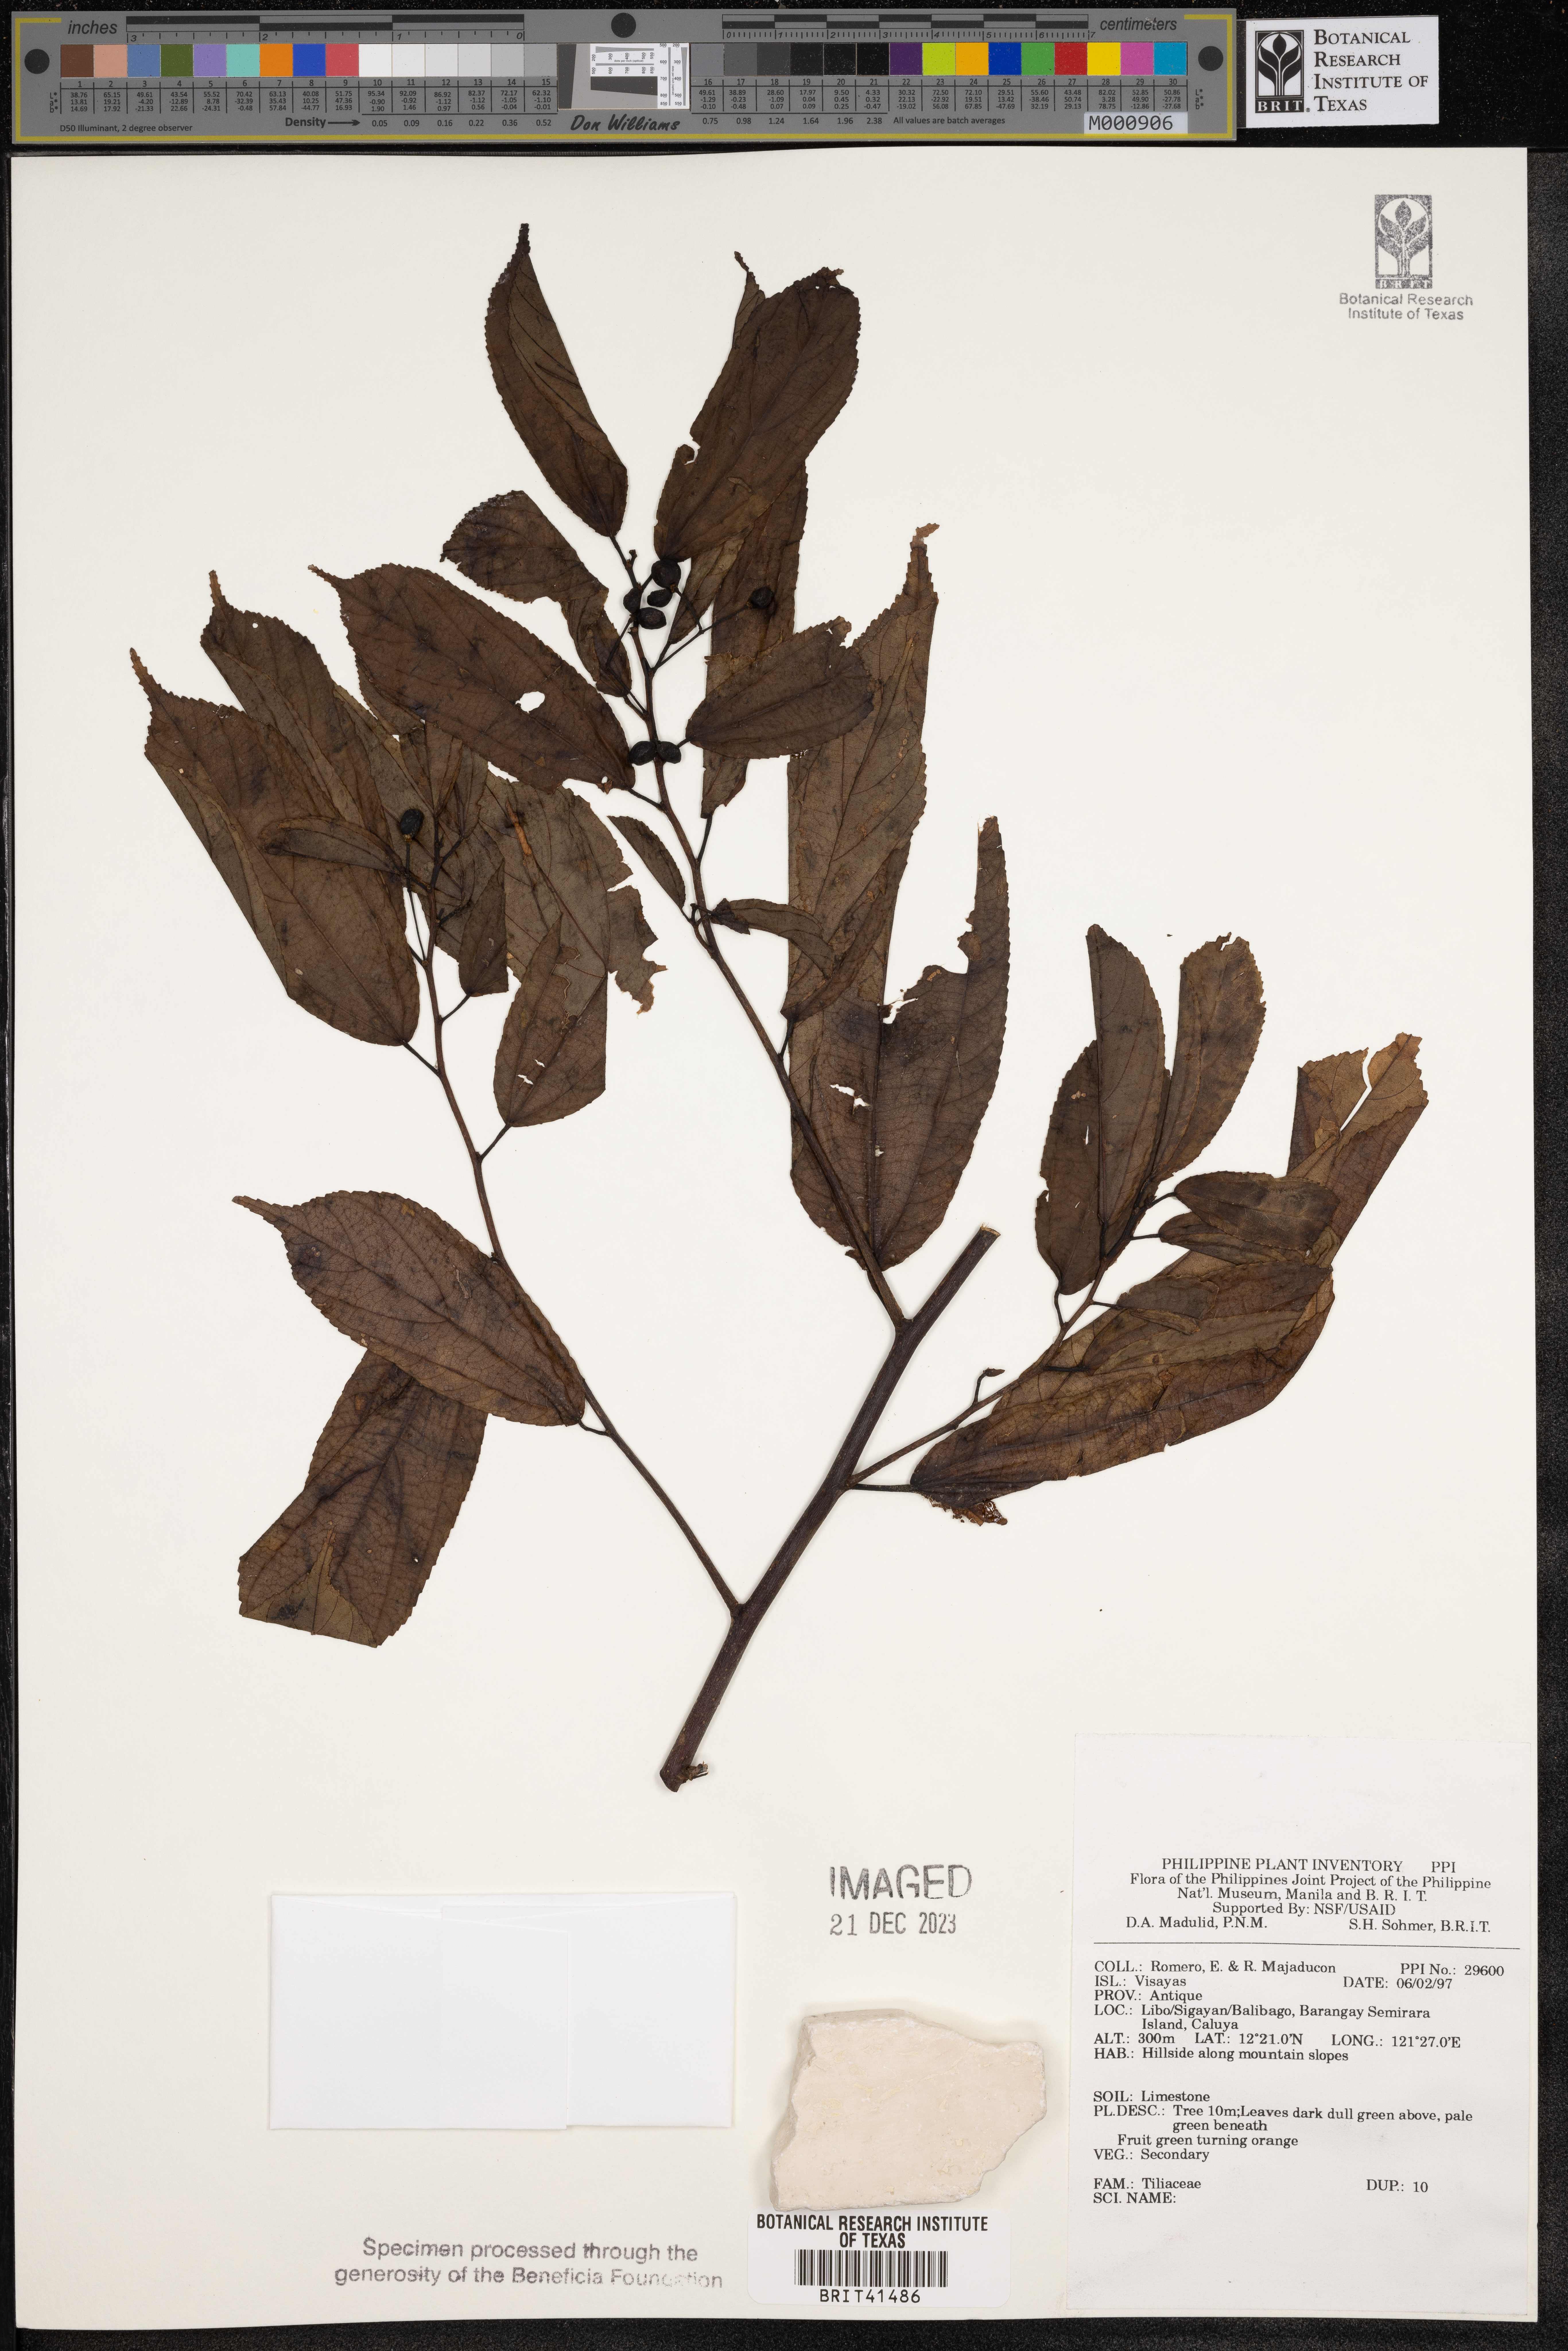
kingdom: Plantae
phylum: Tracheophyta
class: Magnoliopsida
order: Malvales
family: Tiliaceae
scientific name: Tiliaceae
